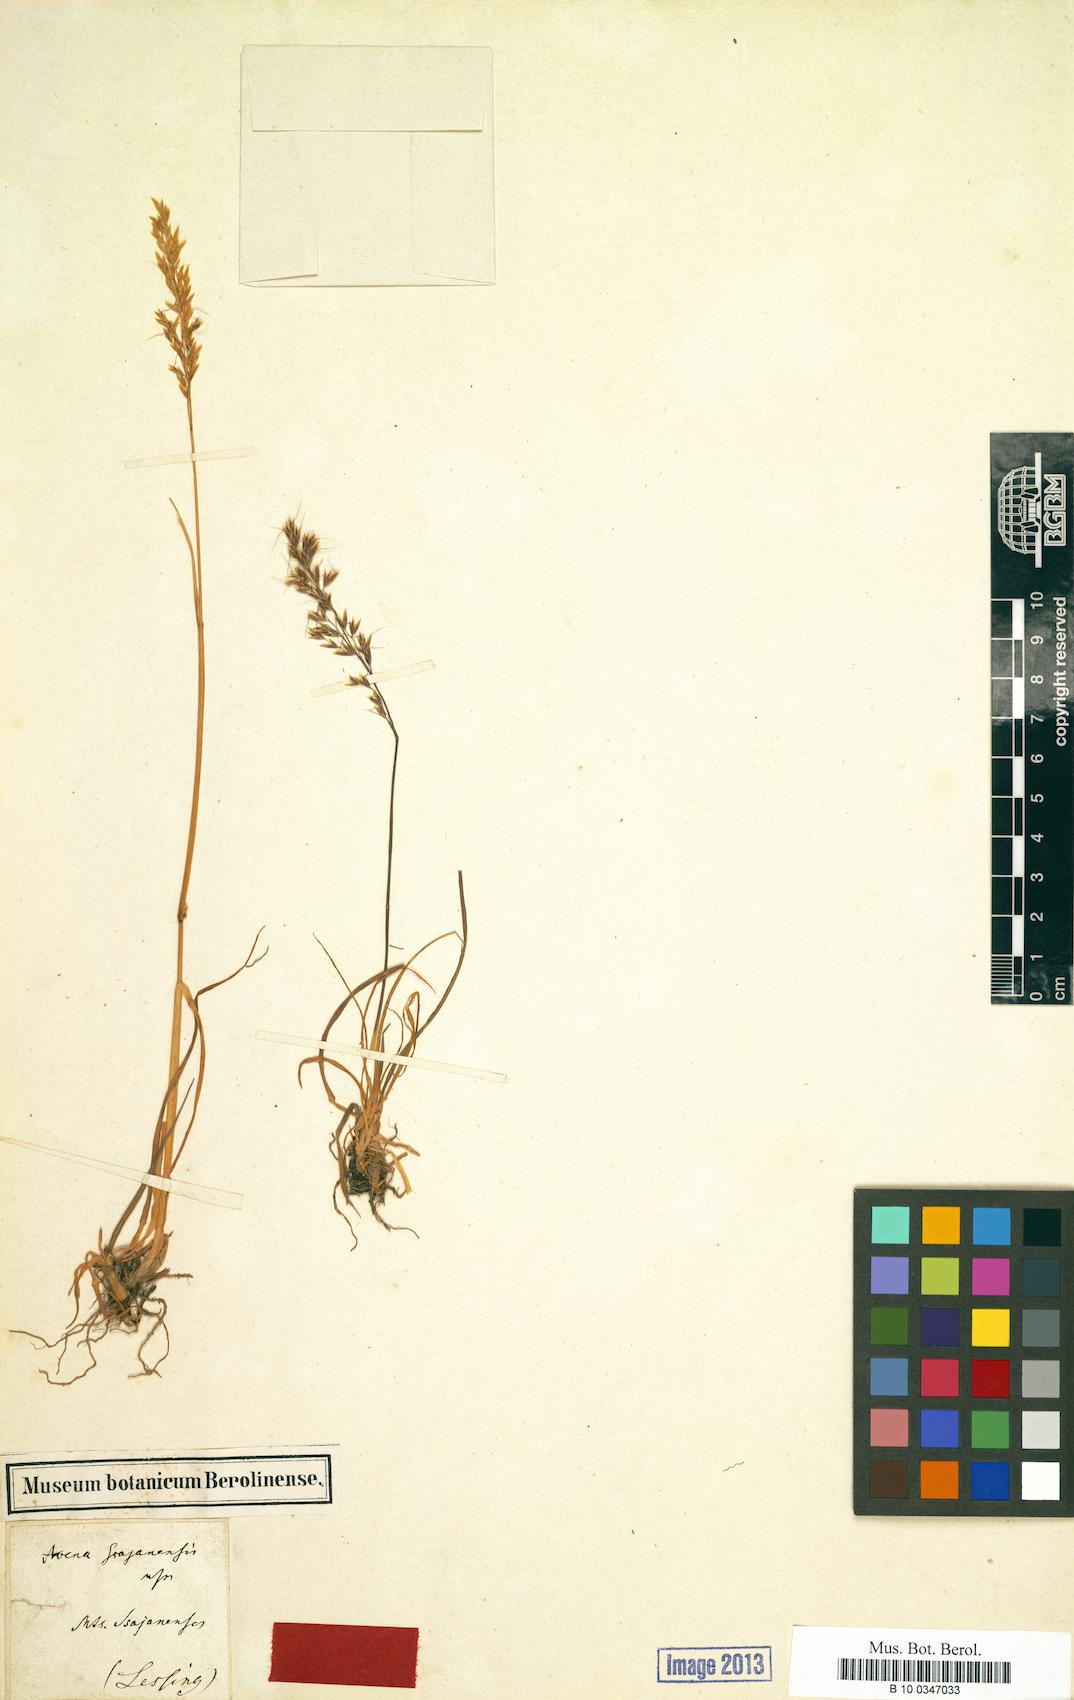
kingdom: Plantae
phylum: Tracheophyta
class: Liliopsida
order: Poales
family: Poaceae
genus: Avena
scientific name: Avena
